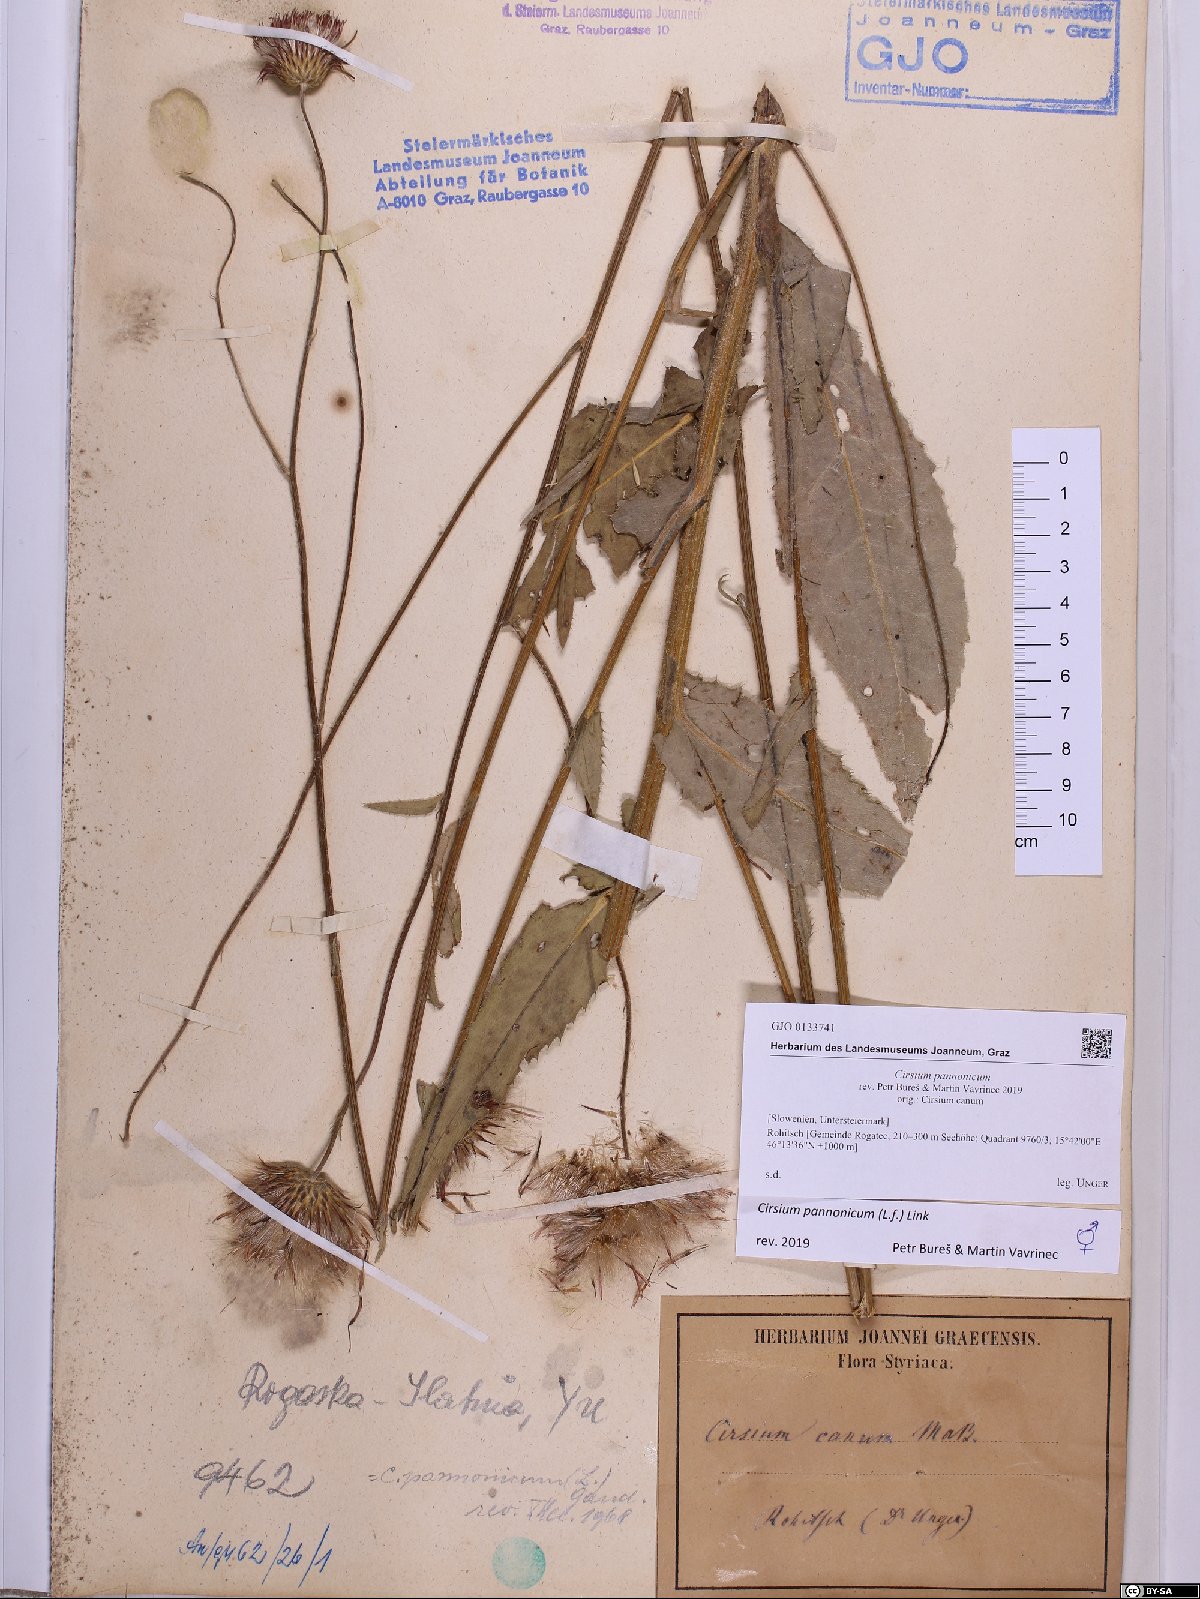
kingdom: Plantae
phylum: Tracheophyta
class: Magnoliopsida
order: Asterales
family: Asteraceae
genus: Cirsium
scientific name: Cirsium pannonicum
